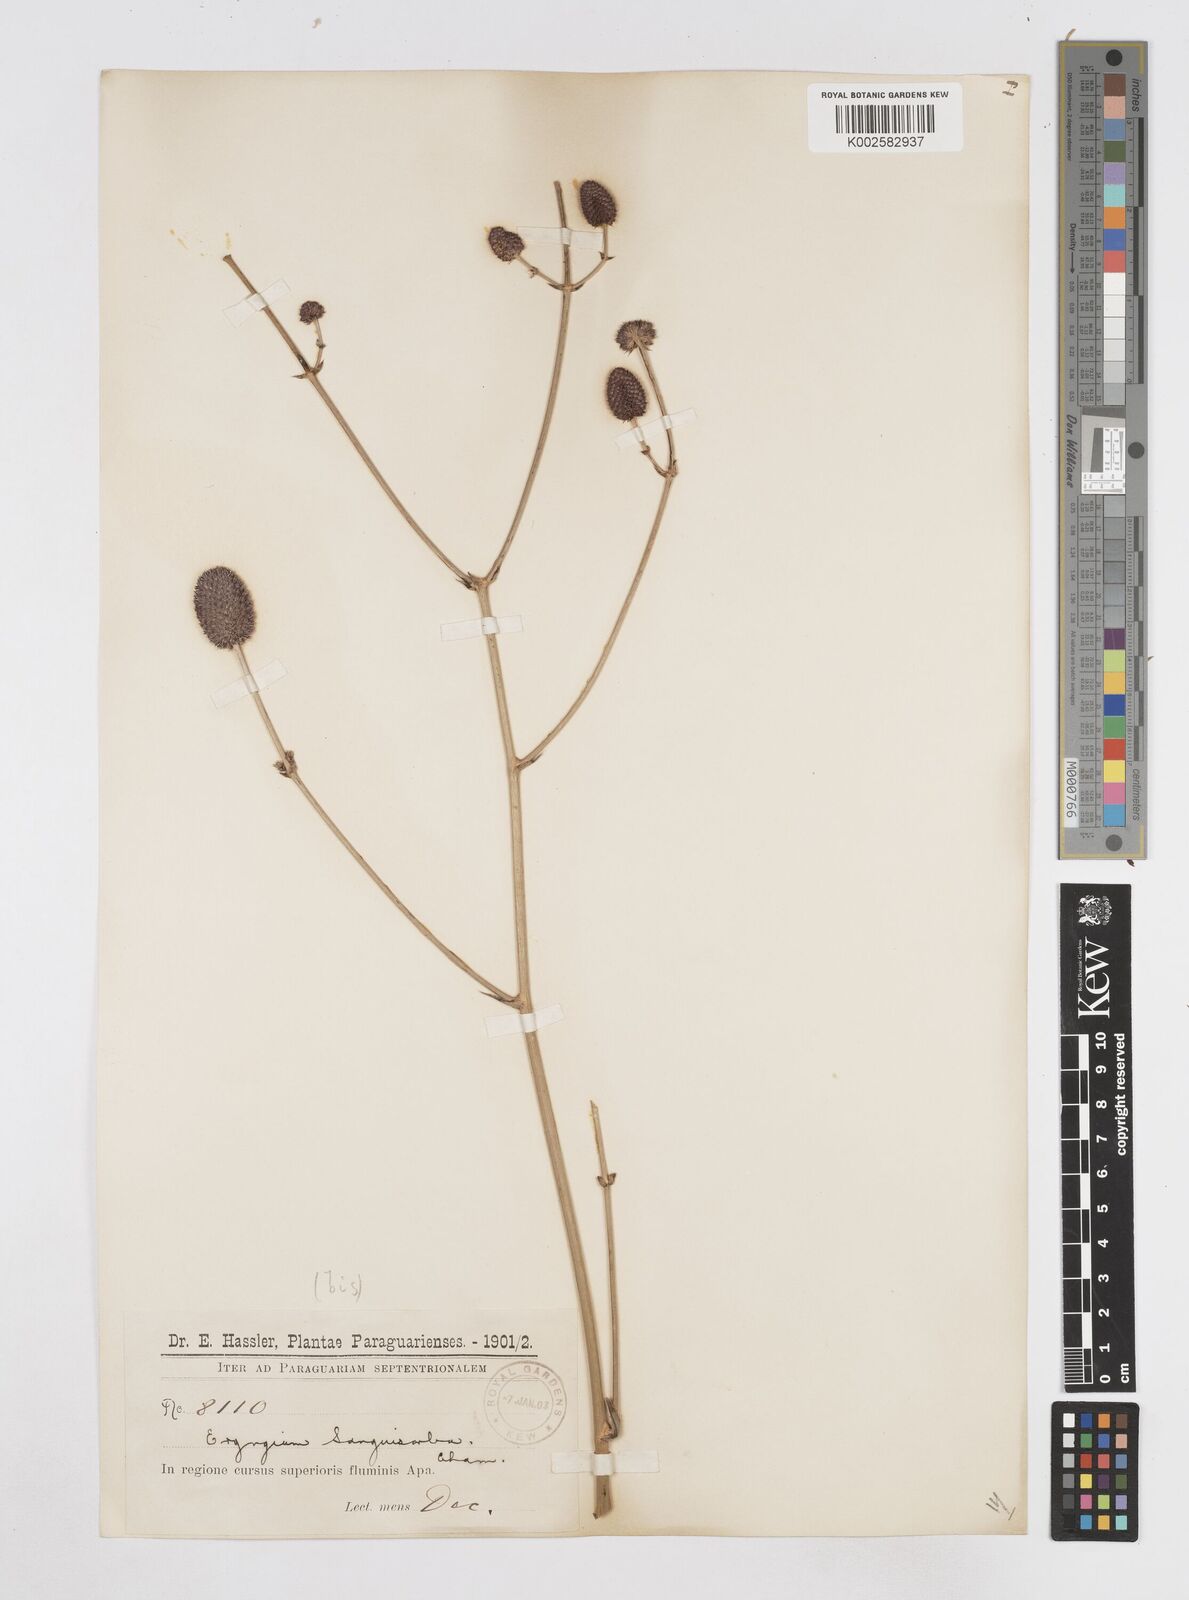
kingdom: Plantae
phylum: Tracheophyta
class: Magnoliopsida
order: Apiales
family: Apiaceae
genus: Eryngium
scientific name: Eryngium sanguisorba
